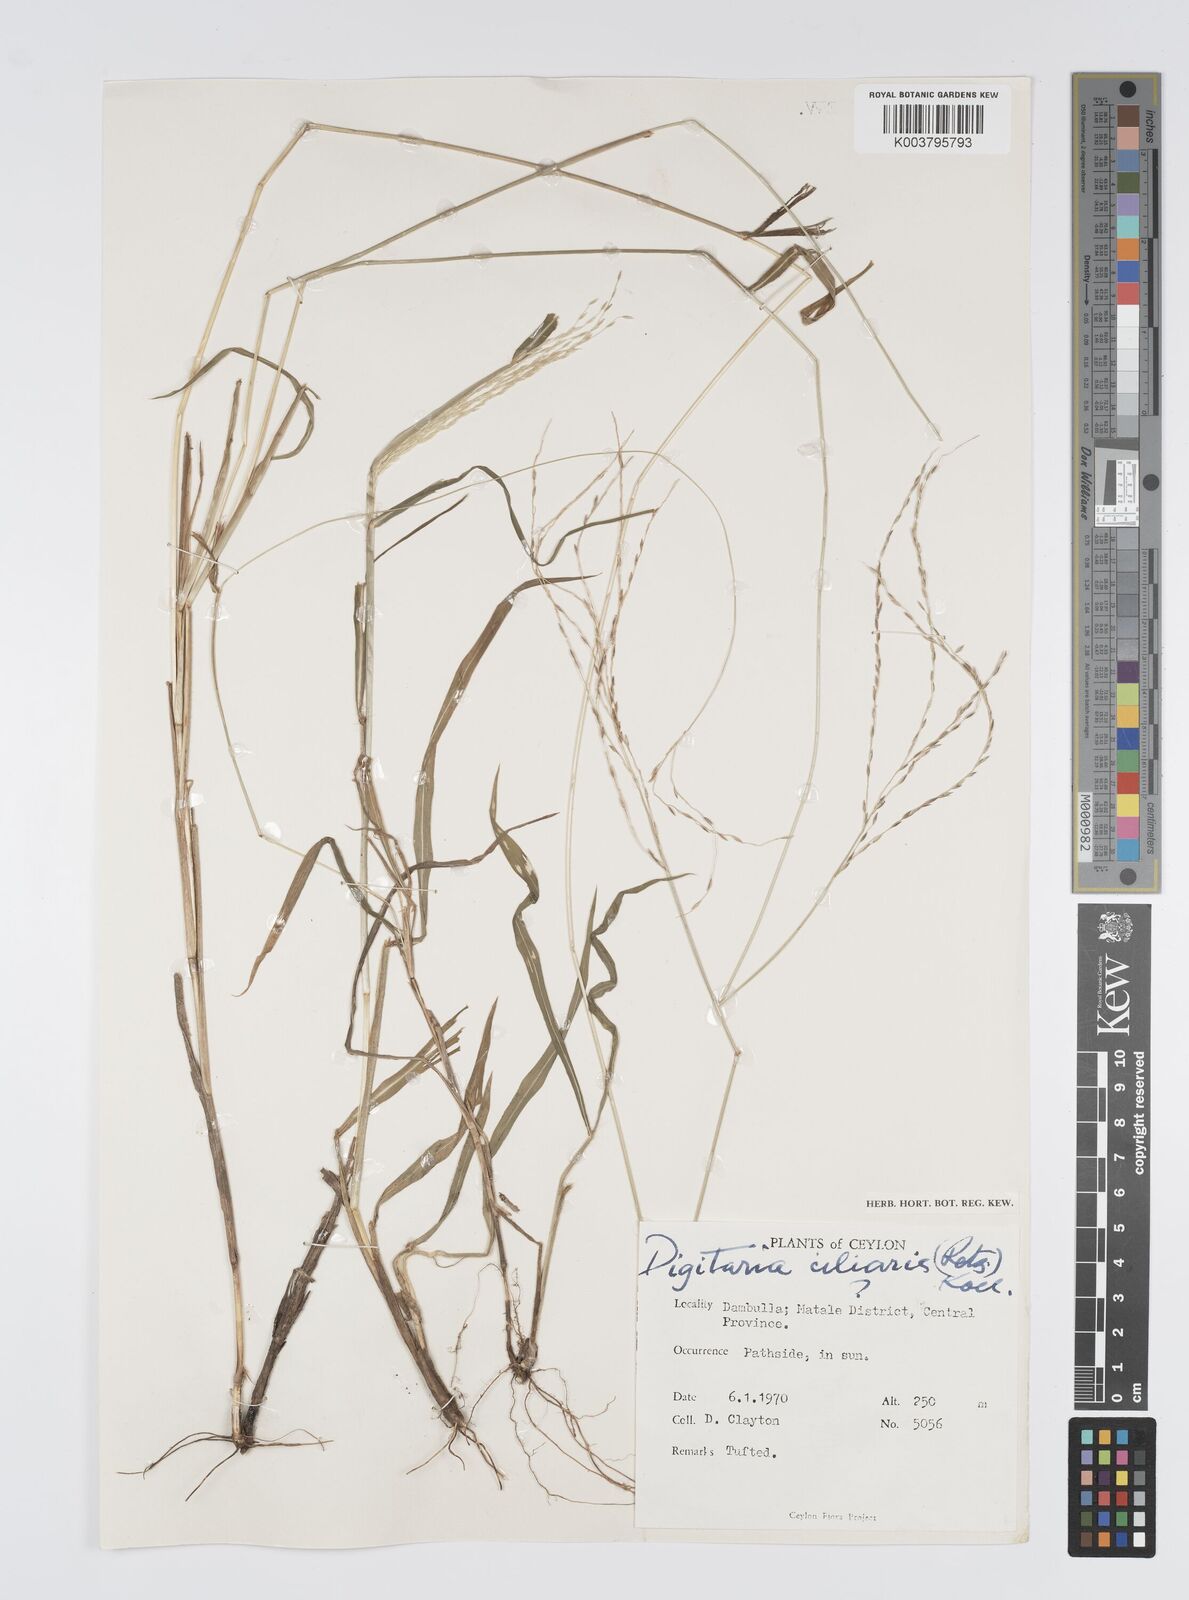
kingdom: Plantae
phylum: Tracheophyta
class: Liliopsida
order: Poales
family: Poaceae
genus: Digitaria
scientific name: Digitaria junghuhniana
